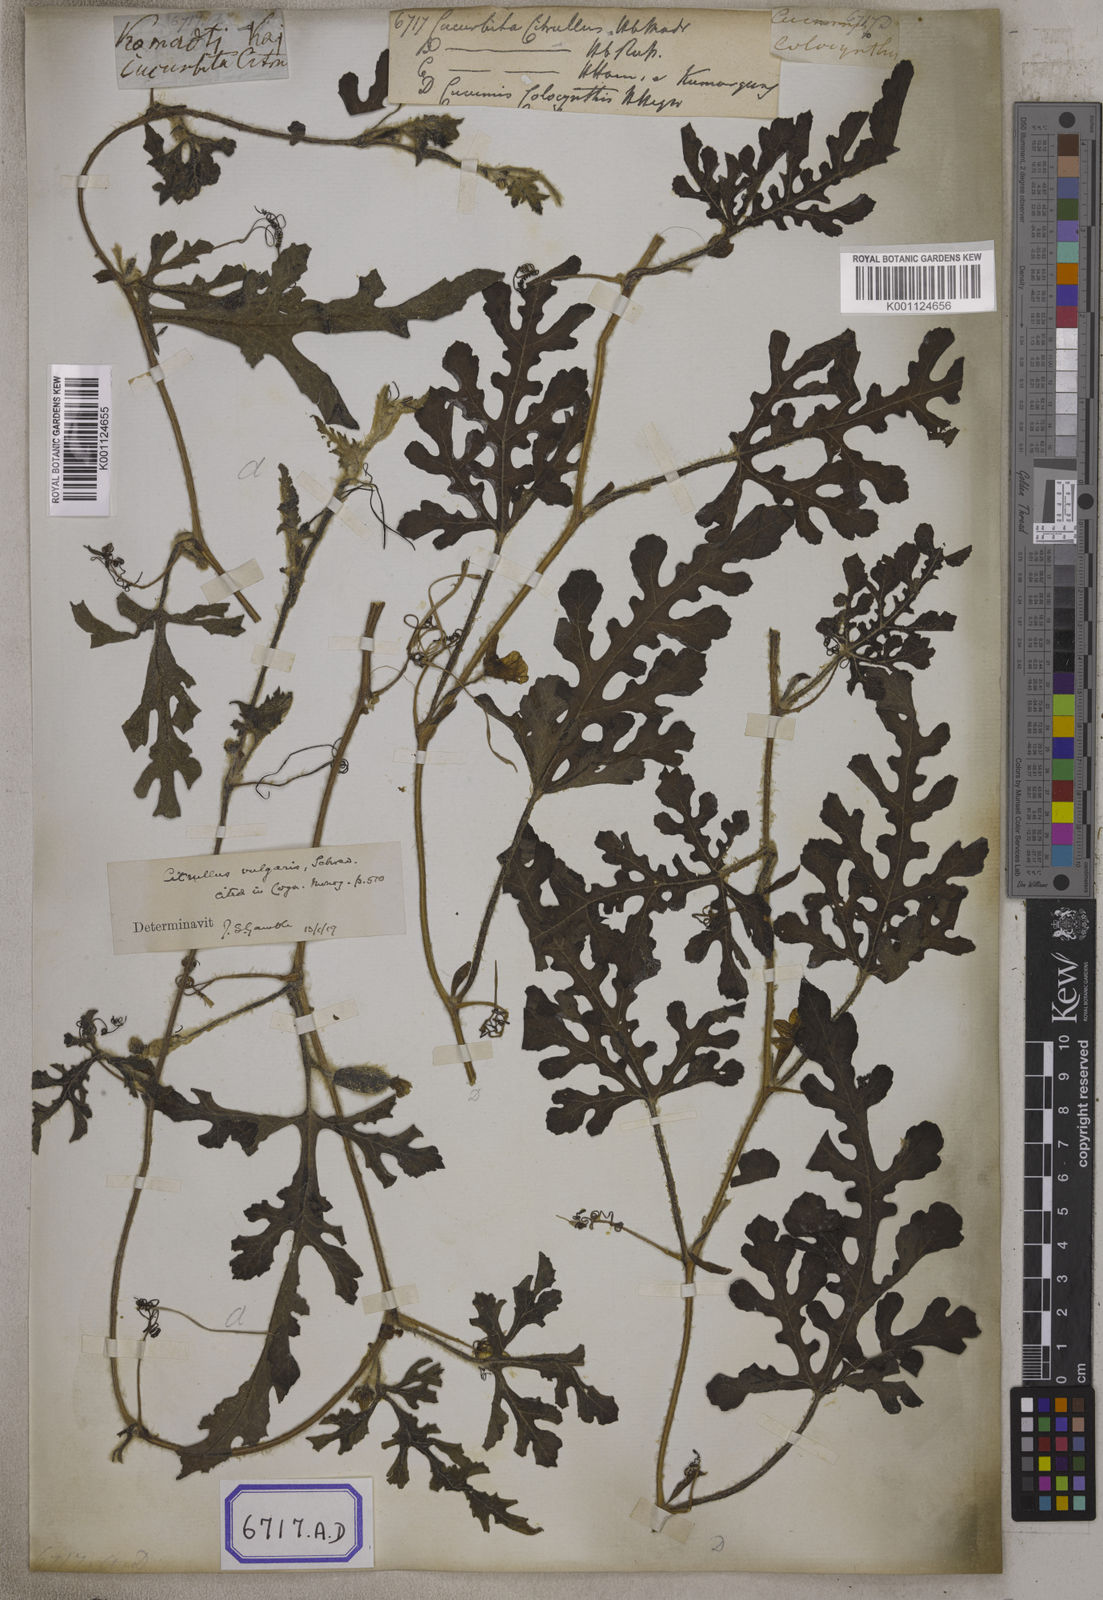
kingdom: Plantae
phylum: Tracheophyta
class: Magnoliopsida
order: Cucurbitales
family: Cucurbitaceae
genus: Citrullus
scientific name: Citrullus lanatus
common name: Watermelon
